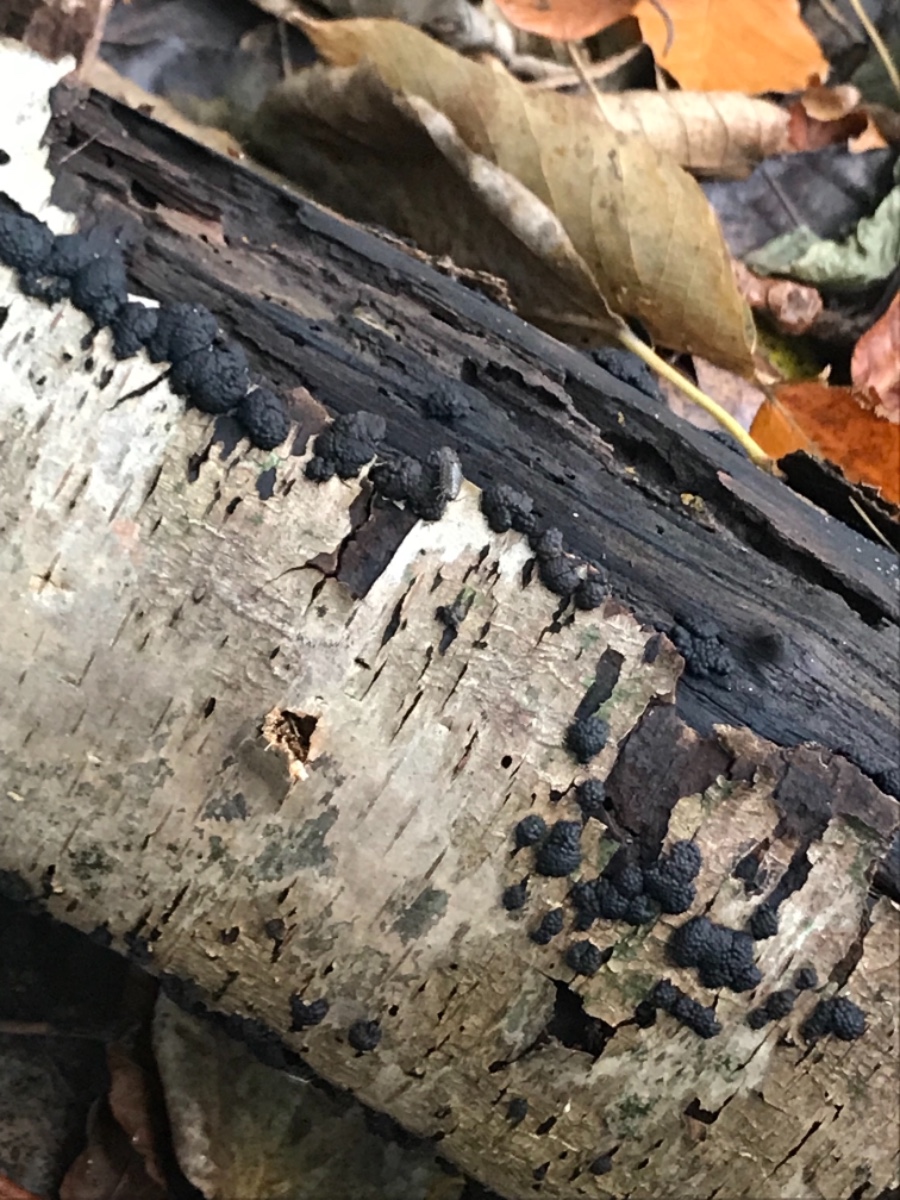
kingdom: Fungi
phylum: Ascomycota
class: Sordariomycetes
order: Xylariales
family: Hypoxylaceae
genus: Jackrogersella
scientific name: Jackrogersella multiformis
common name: foranderlig kulbær
